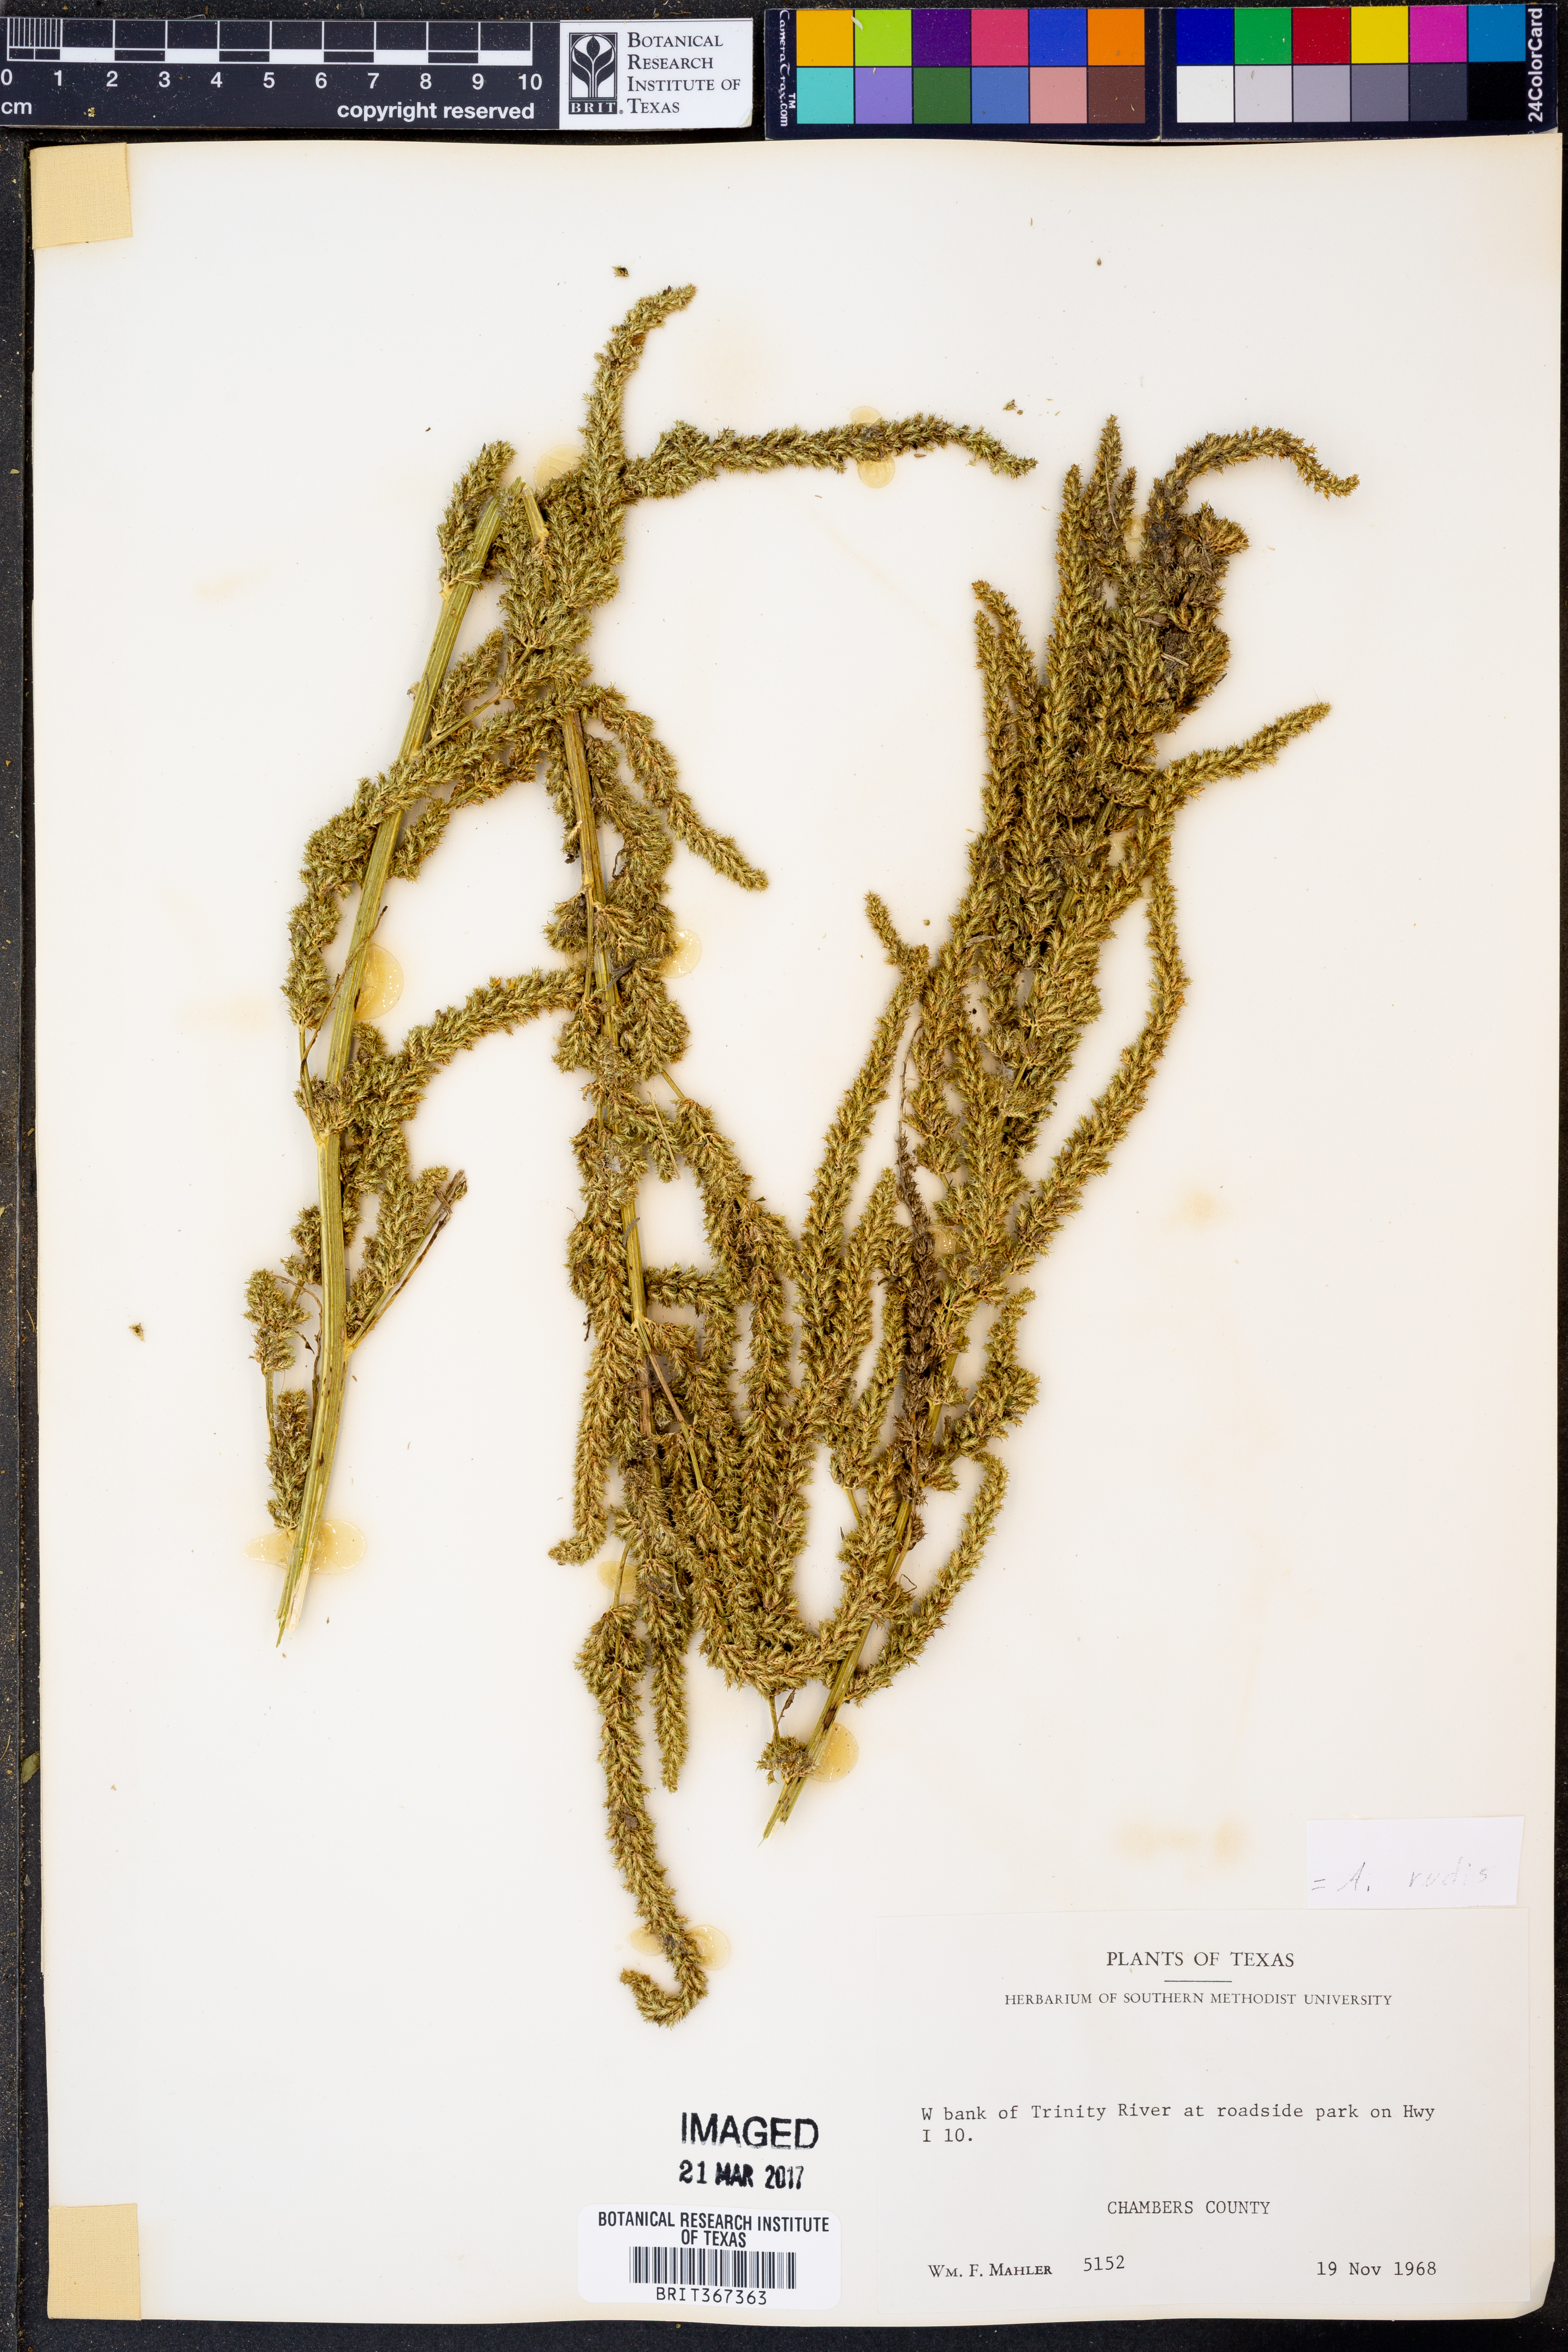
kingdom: Plantae
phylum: Tracheophyta
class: Magnoliopsida
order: Caryophyllales
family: Amaranthaceae
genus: Amaranthus
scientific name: Amaranthus tuberculatus
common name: Rough-fruit amaranth
